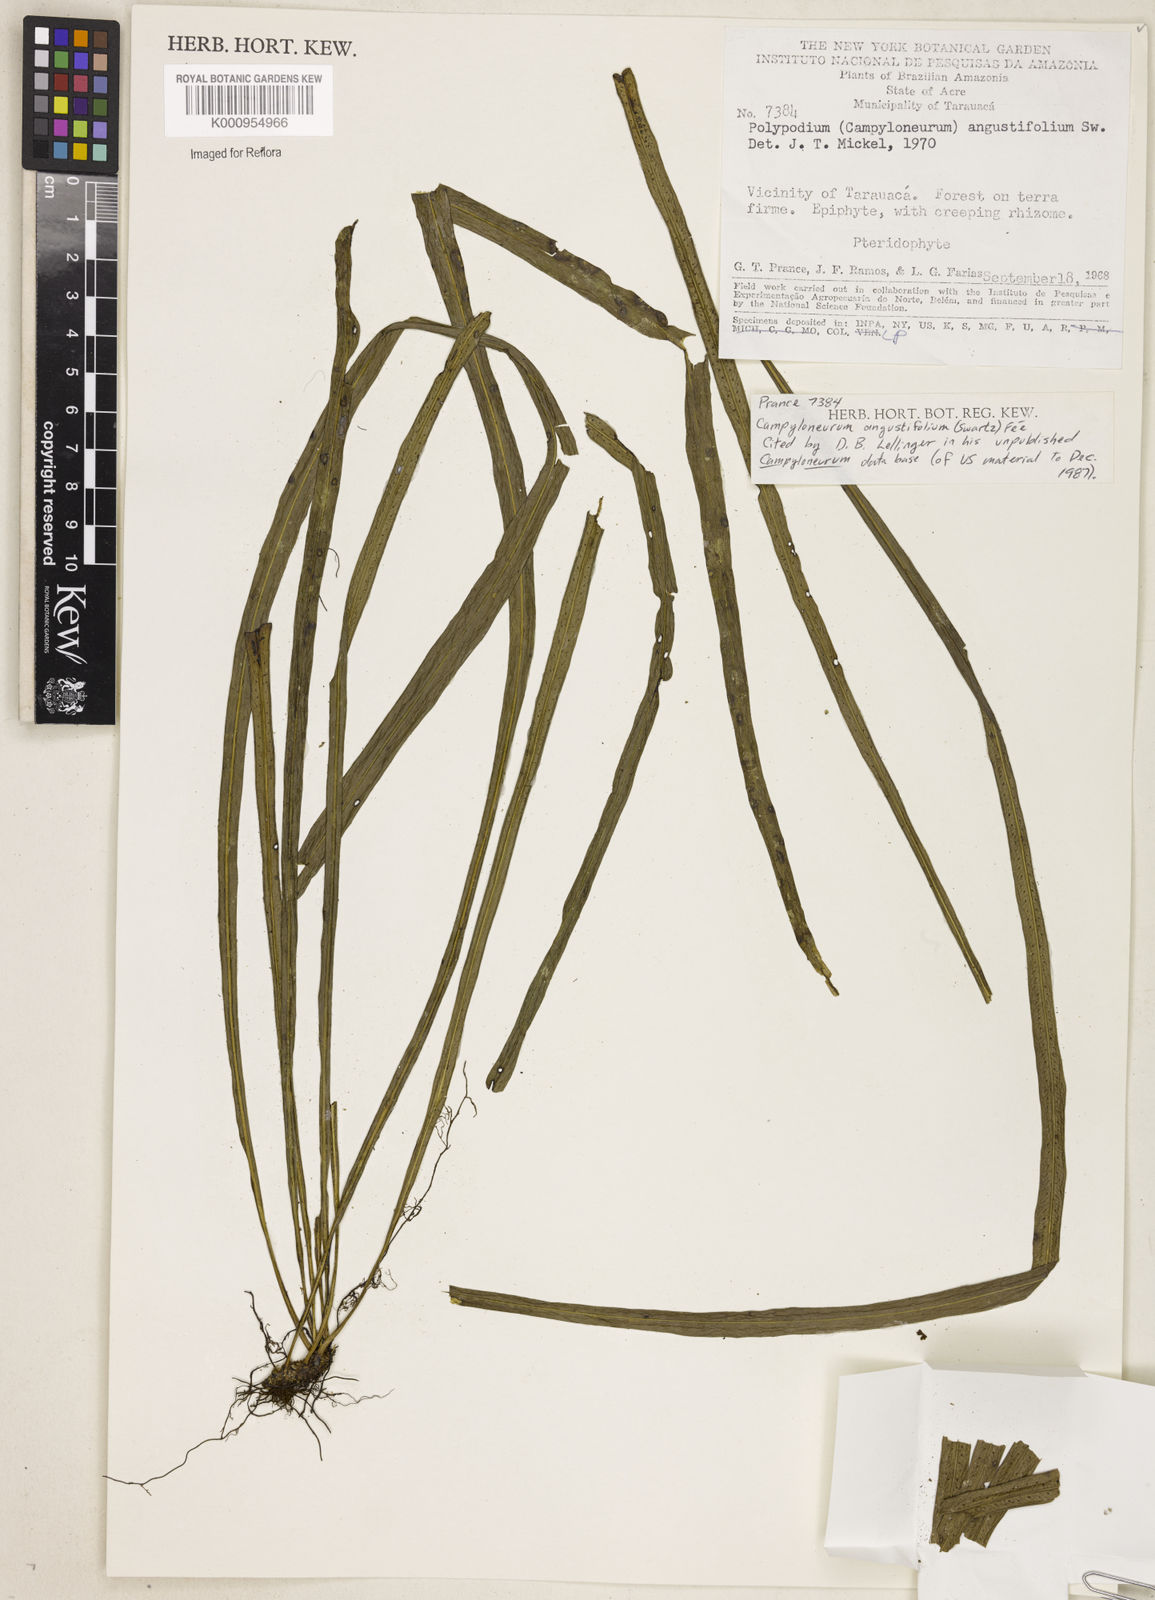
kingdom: Plantae
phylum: Tracheophyta
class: Polypodiopsida
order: Polypodiales
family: Polypodiaceae
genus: Campyloneurum
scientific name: Campyloneurum
